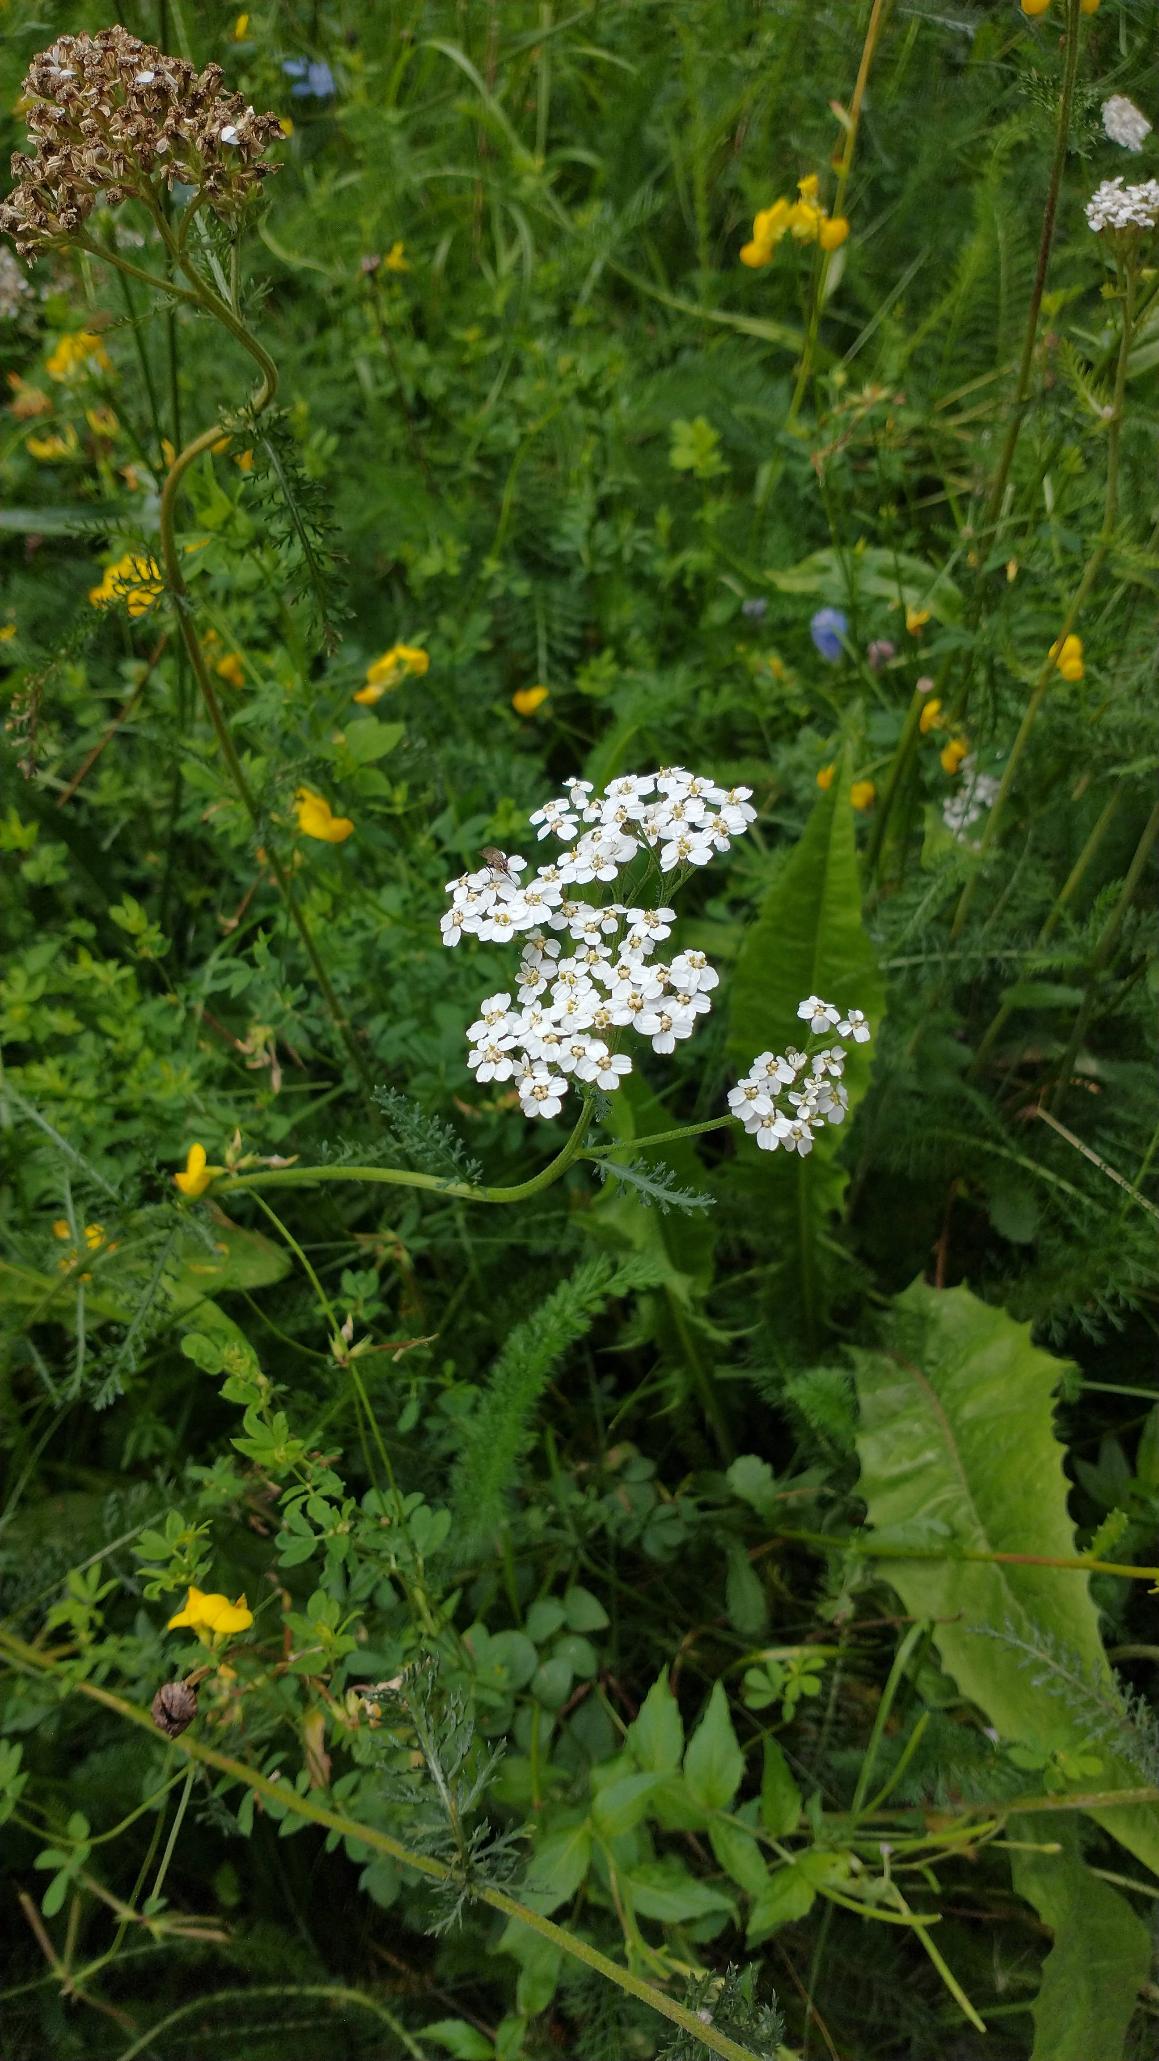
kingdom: Plantae
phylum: Tracheophyta
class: Magnoliopsida
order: Asterales
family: Asteraceae
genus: Achillea
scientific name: Achillea millefolium
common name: Almindelig røllike
